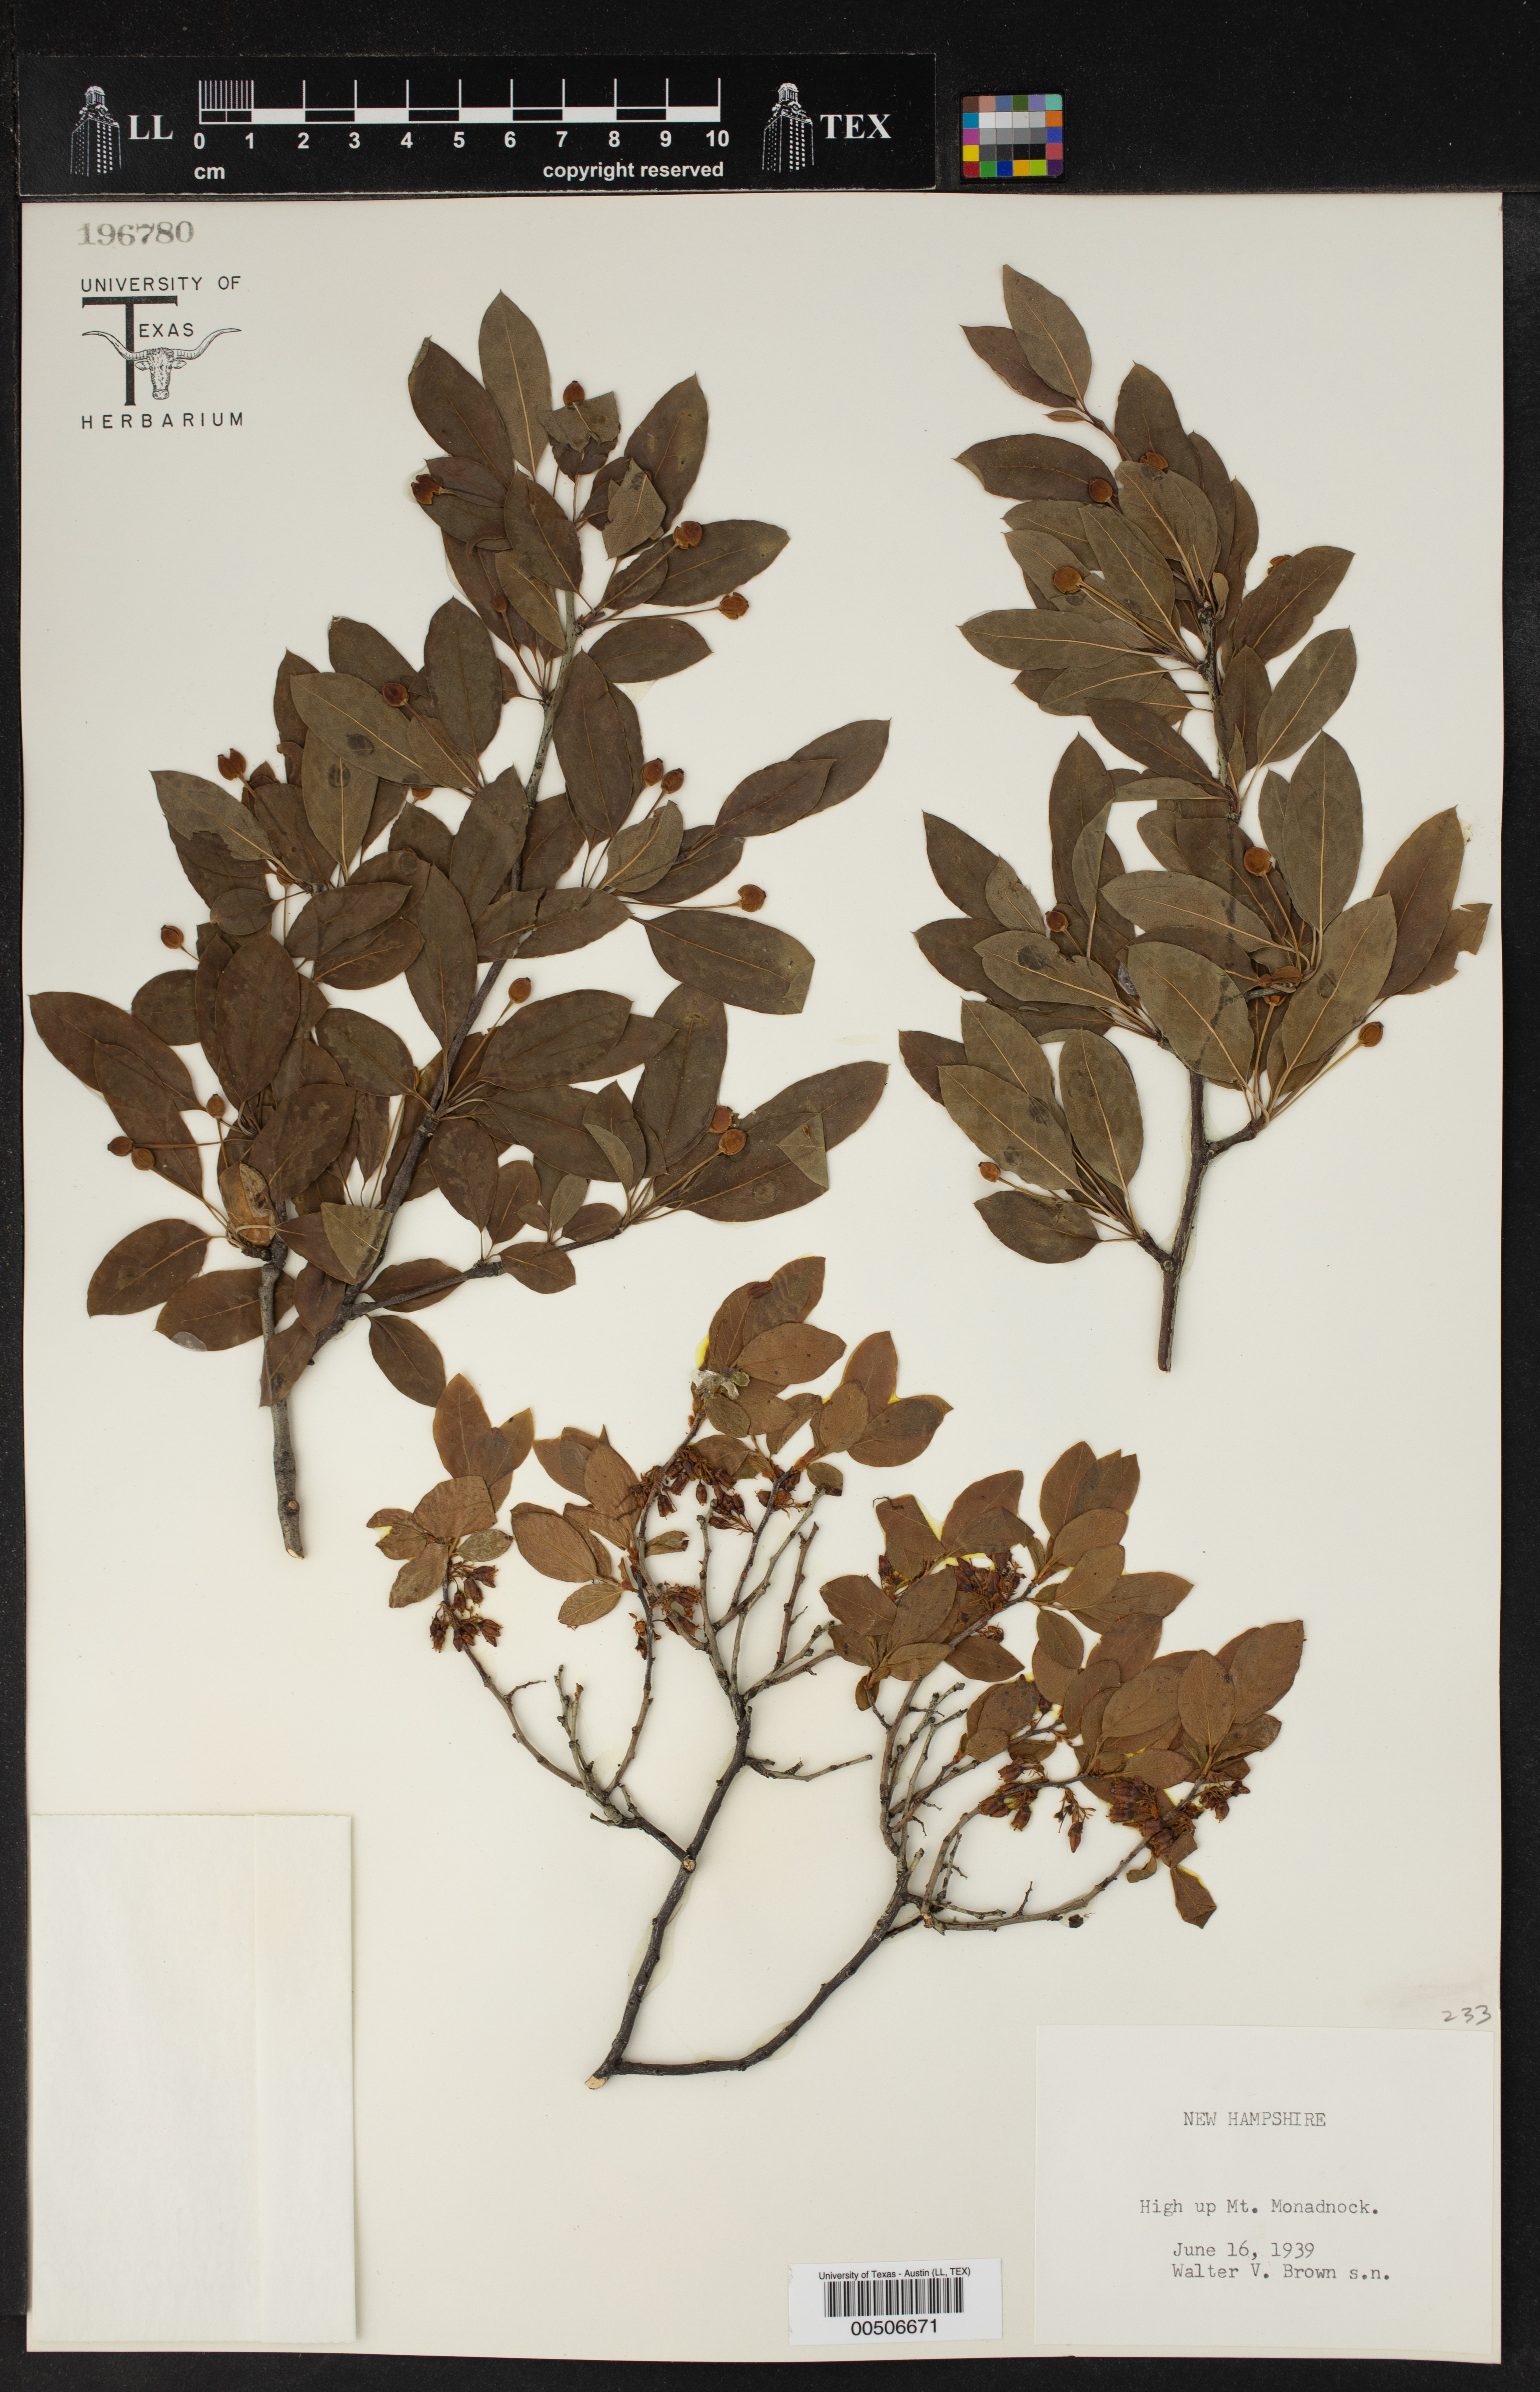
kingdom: Plantae
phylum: Tracheophyta
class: Magnoliopsida
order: Ericales
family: Ericaceae
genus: Vaccinium
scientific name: Vaccinium
